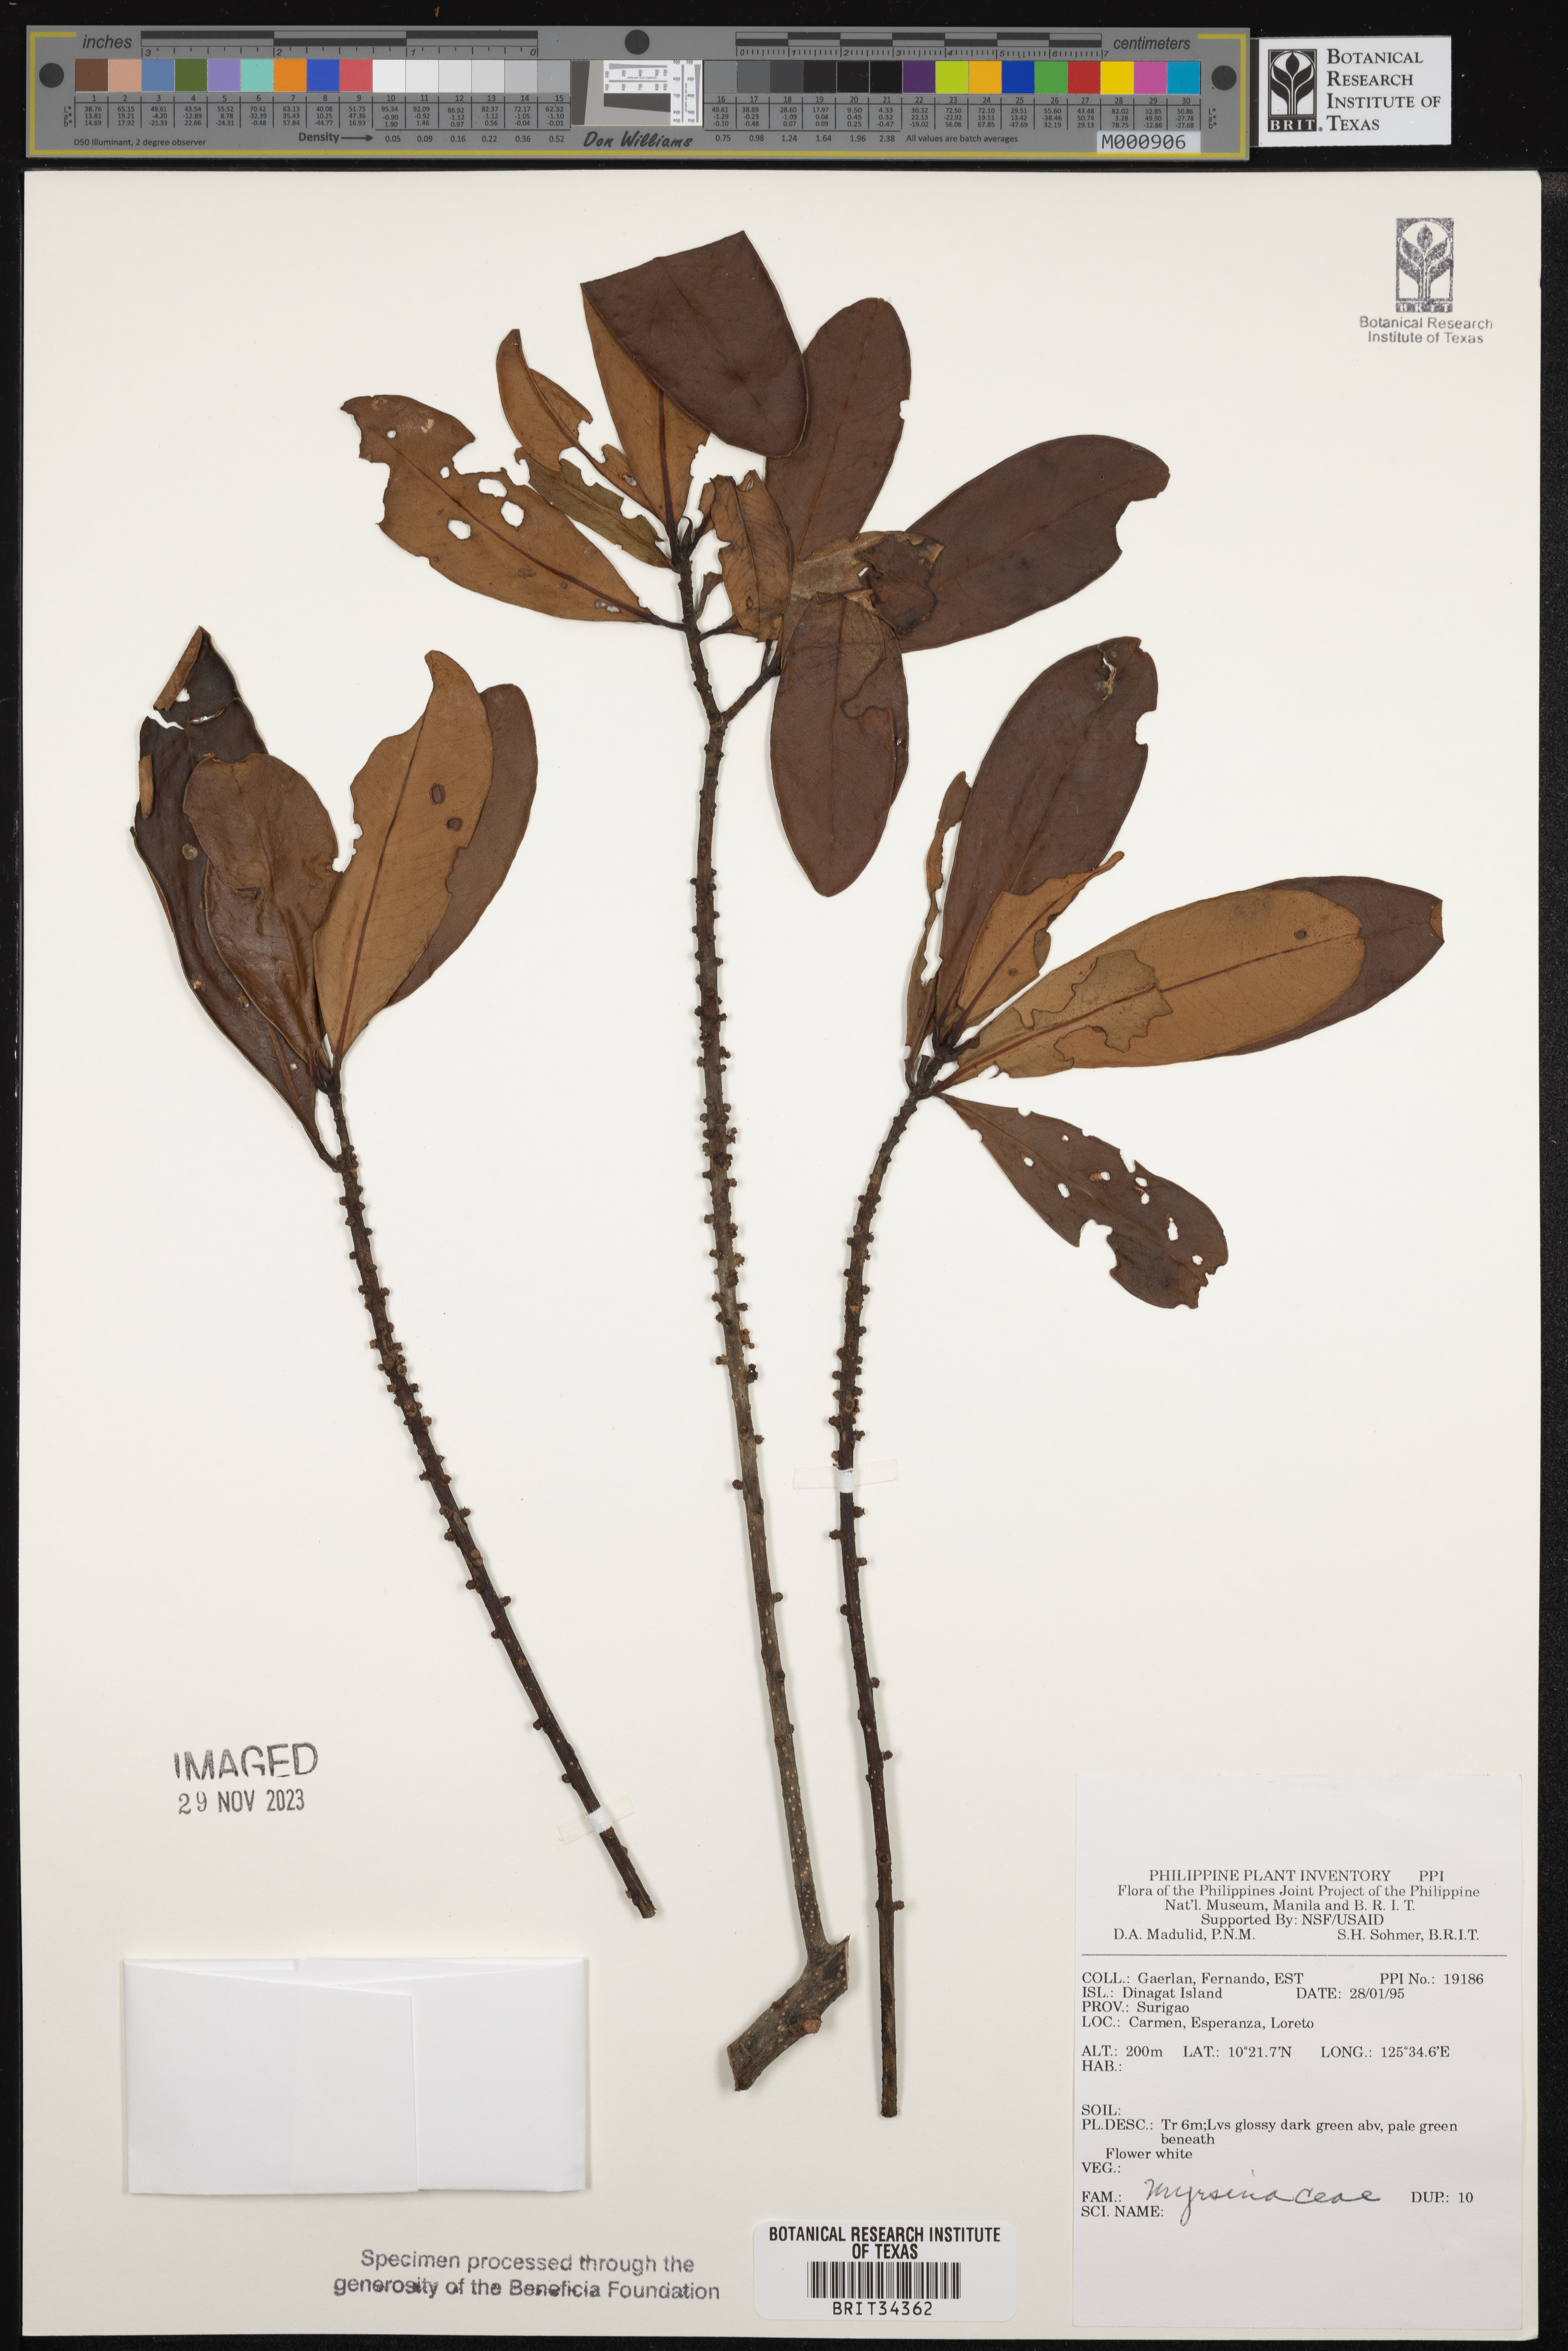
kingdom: Plantae
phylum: Tracheophyta
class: Magnoliopsida
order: Ericales
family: Primulaceae
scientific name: Primulaceae
